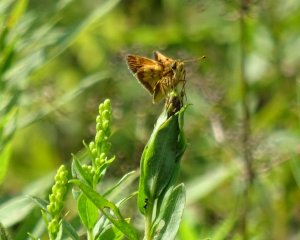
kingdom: Animalia
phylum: Arthropoda
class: Insecta
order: Lepidoptera
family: Hesperiidae
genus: Polites
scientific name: Polites coras
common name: Peck's Skipper
